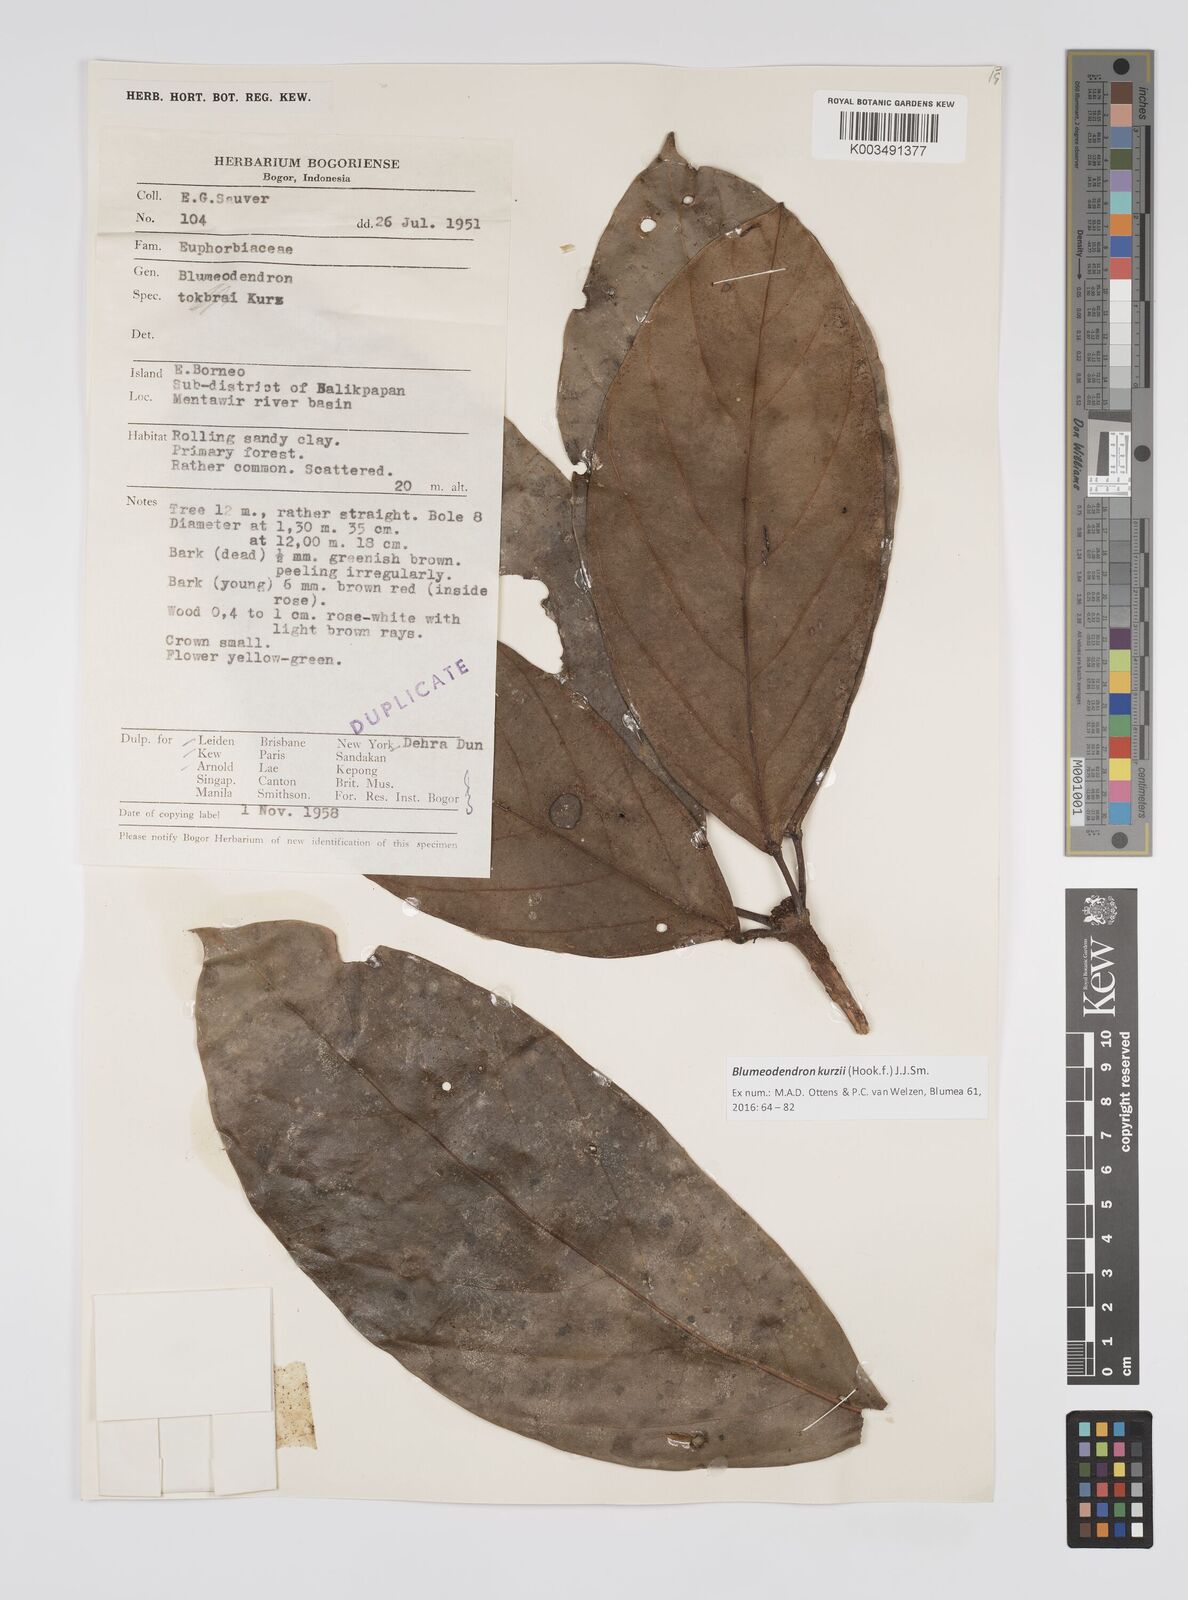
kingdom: Plantae
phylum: Tracheophyta
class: Magnoliopsida
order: Malpighiales
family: Euphorbiaceae
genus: Blumeodendron
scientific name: Blumeodendron kurzii
